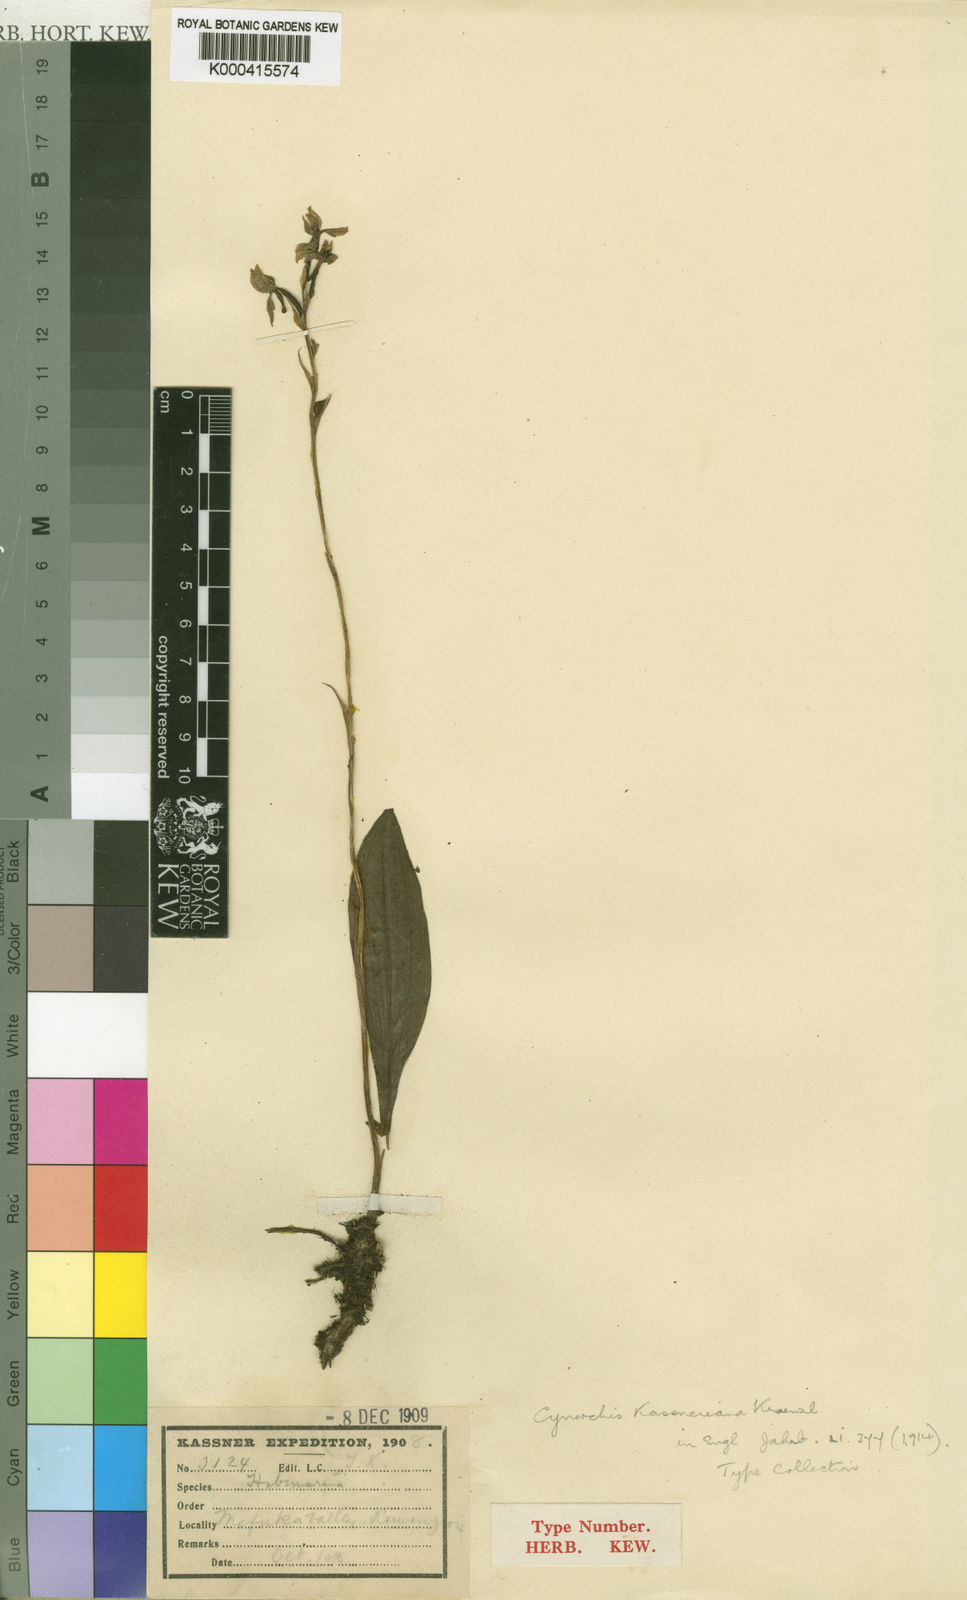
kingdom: Plantae
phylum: Tracheophyta
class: Liliopsida
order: Asparagales
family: Orchidaceae
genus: Cynorkis
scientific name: Cynorkis kassneriana
